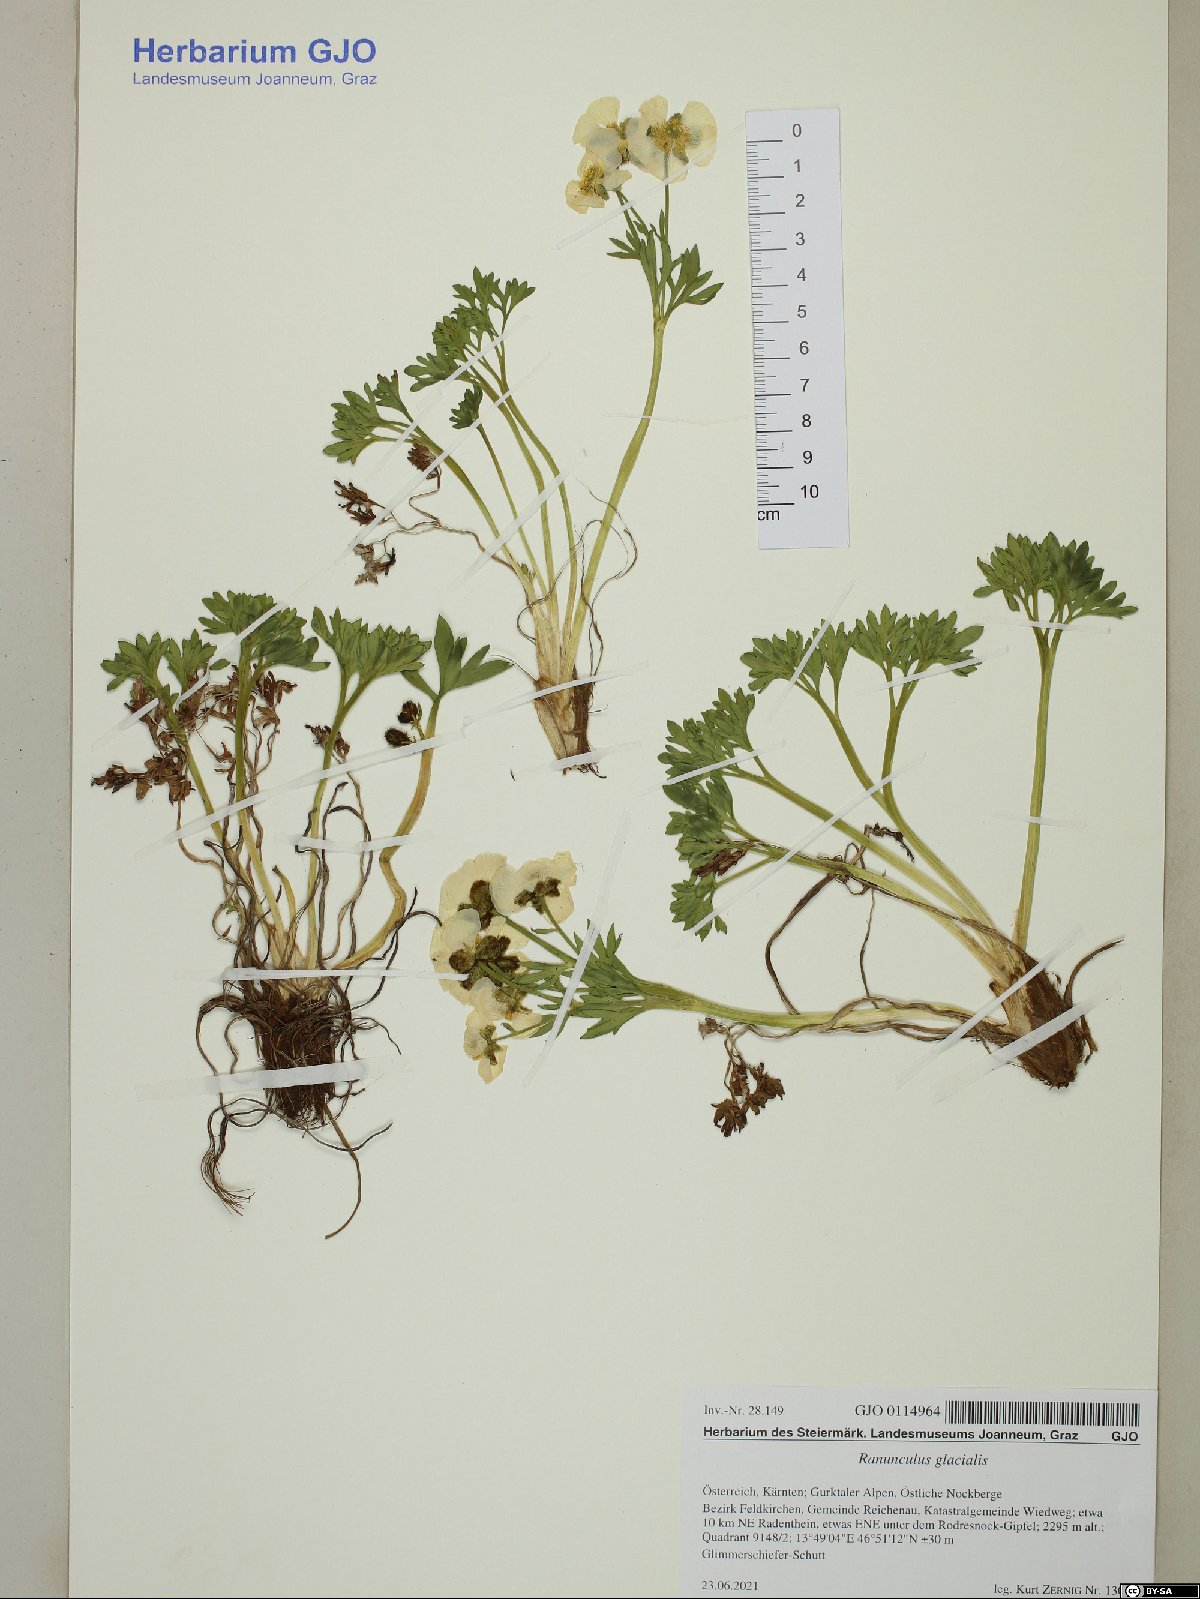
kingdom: Plantae
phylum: Tracheophyta
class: Magnoliopsida
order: Ranunculales
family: Ranunculaceae
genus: Ranunculus
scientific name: Ranunculus glacialis
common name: Glacier buttercup
